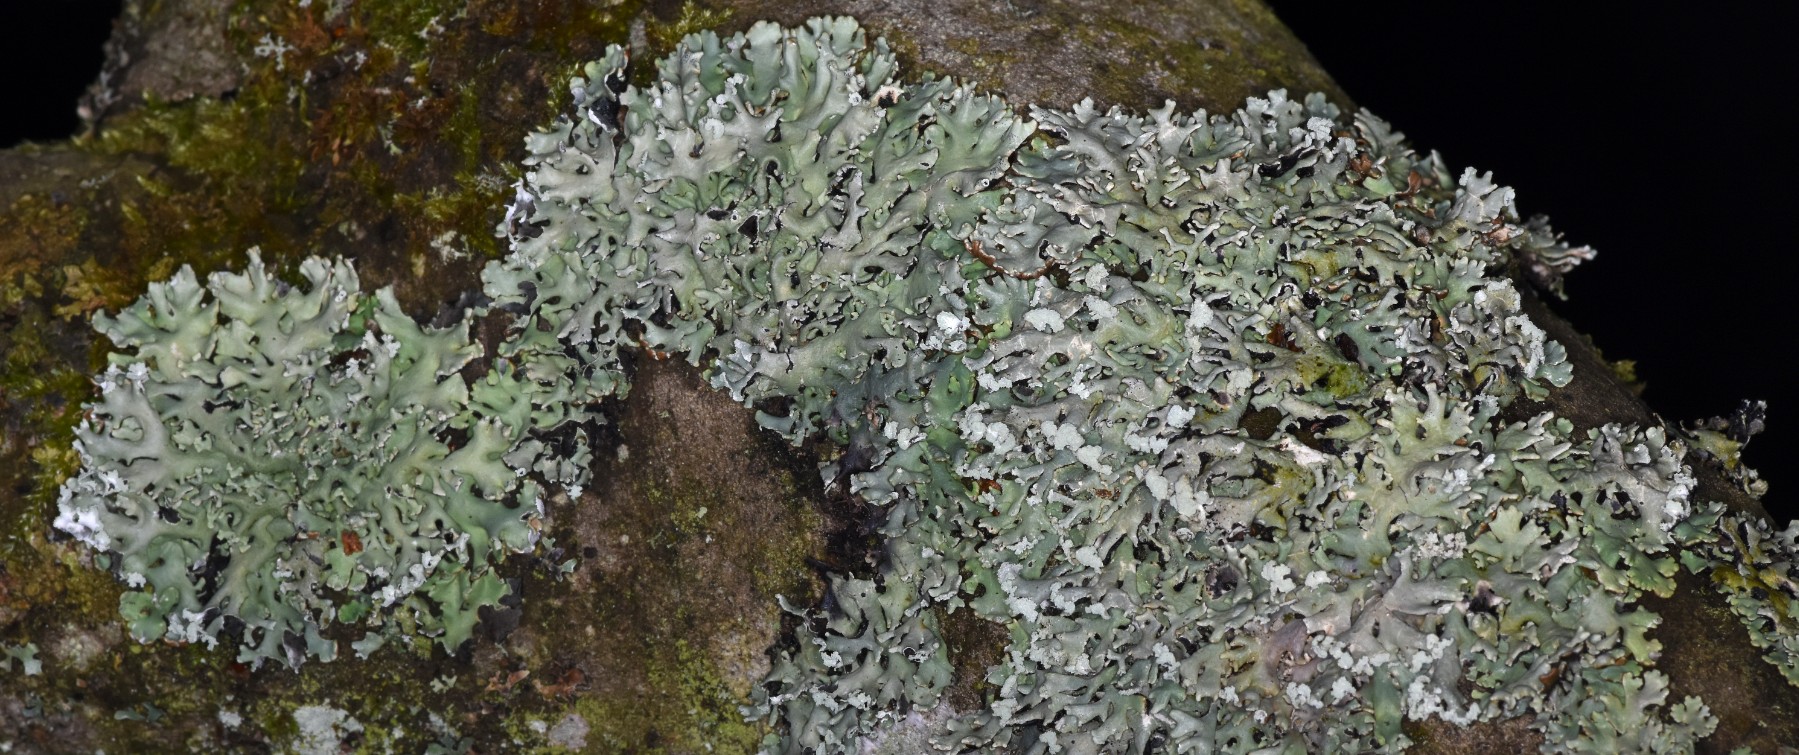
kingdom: Fungi
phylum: Ascomycota
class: Lecanoromycetes
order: Lecanorales
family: Parmeliaceae
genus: Hypogymnia
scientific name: Hypogymnia physodes
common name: almindelig kvistlav
